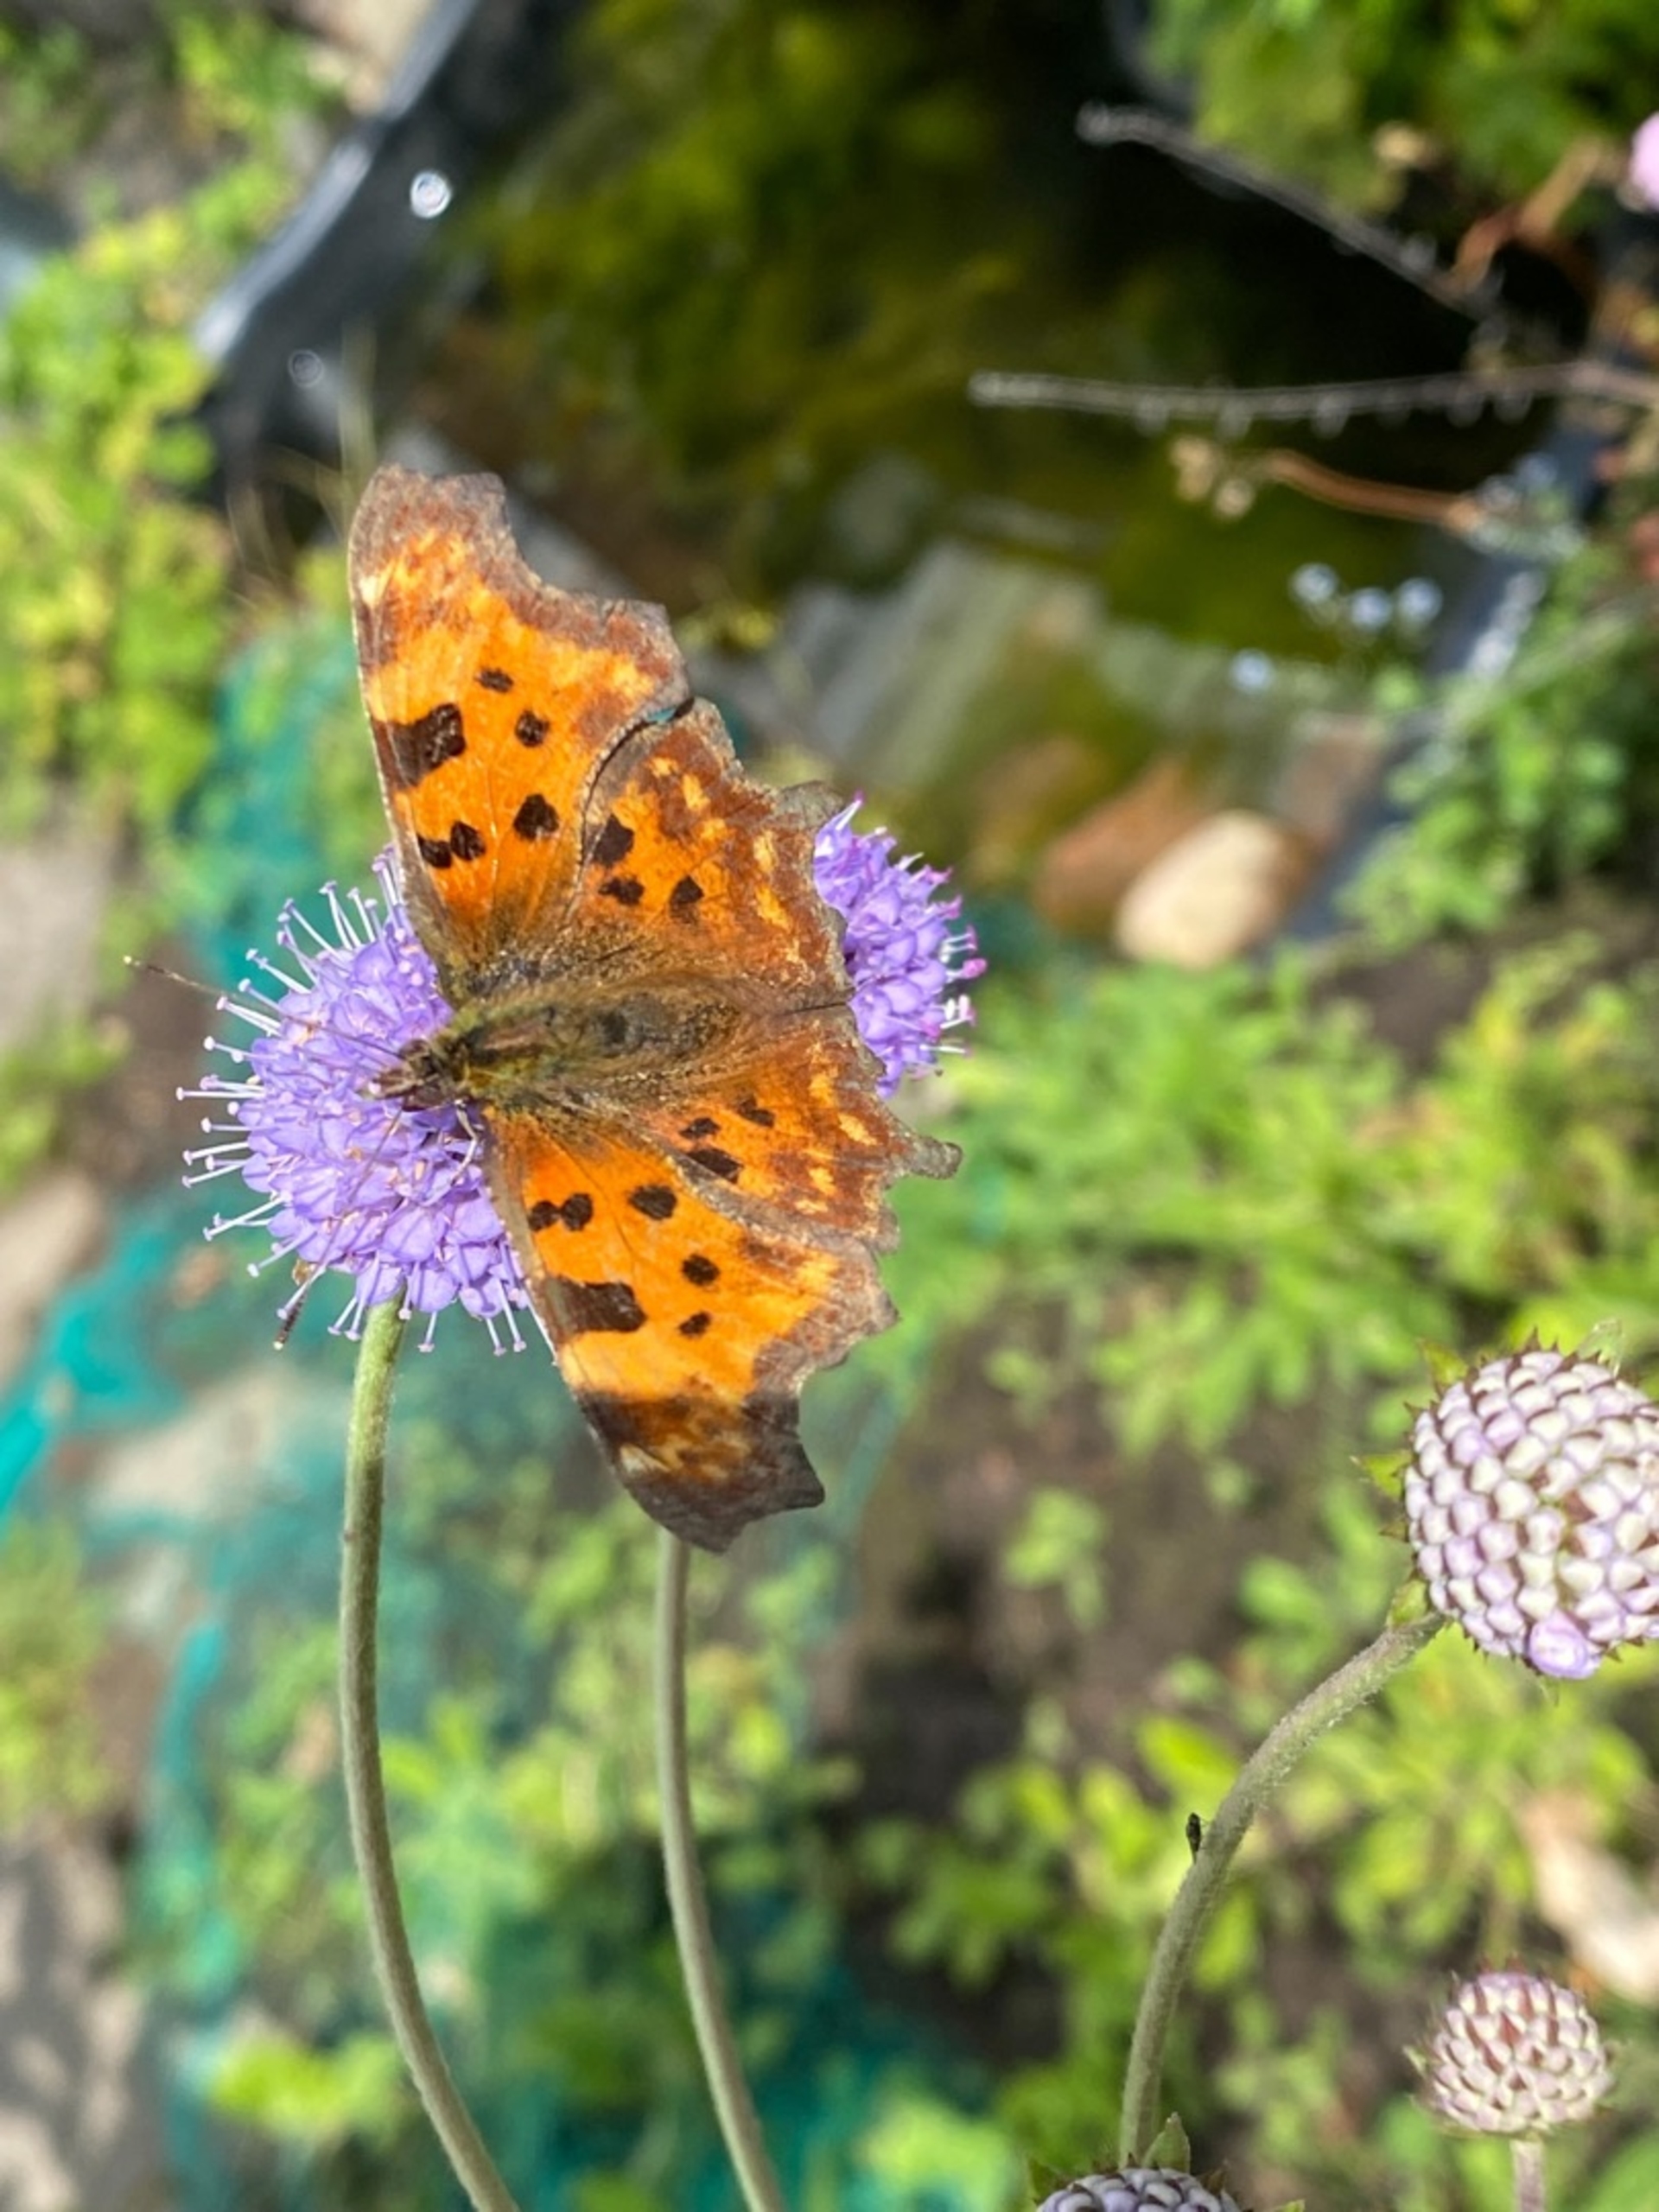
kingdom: Animalia
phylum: Arthropoda
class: Insecta
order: Lepidoptera
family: Nymphalidae
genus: Polygonia
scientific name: Polygonia c-album
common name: Det hvide C
